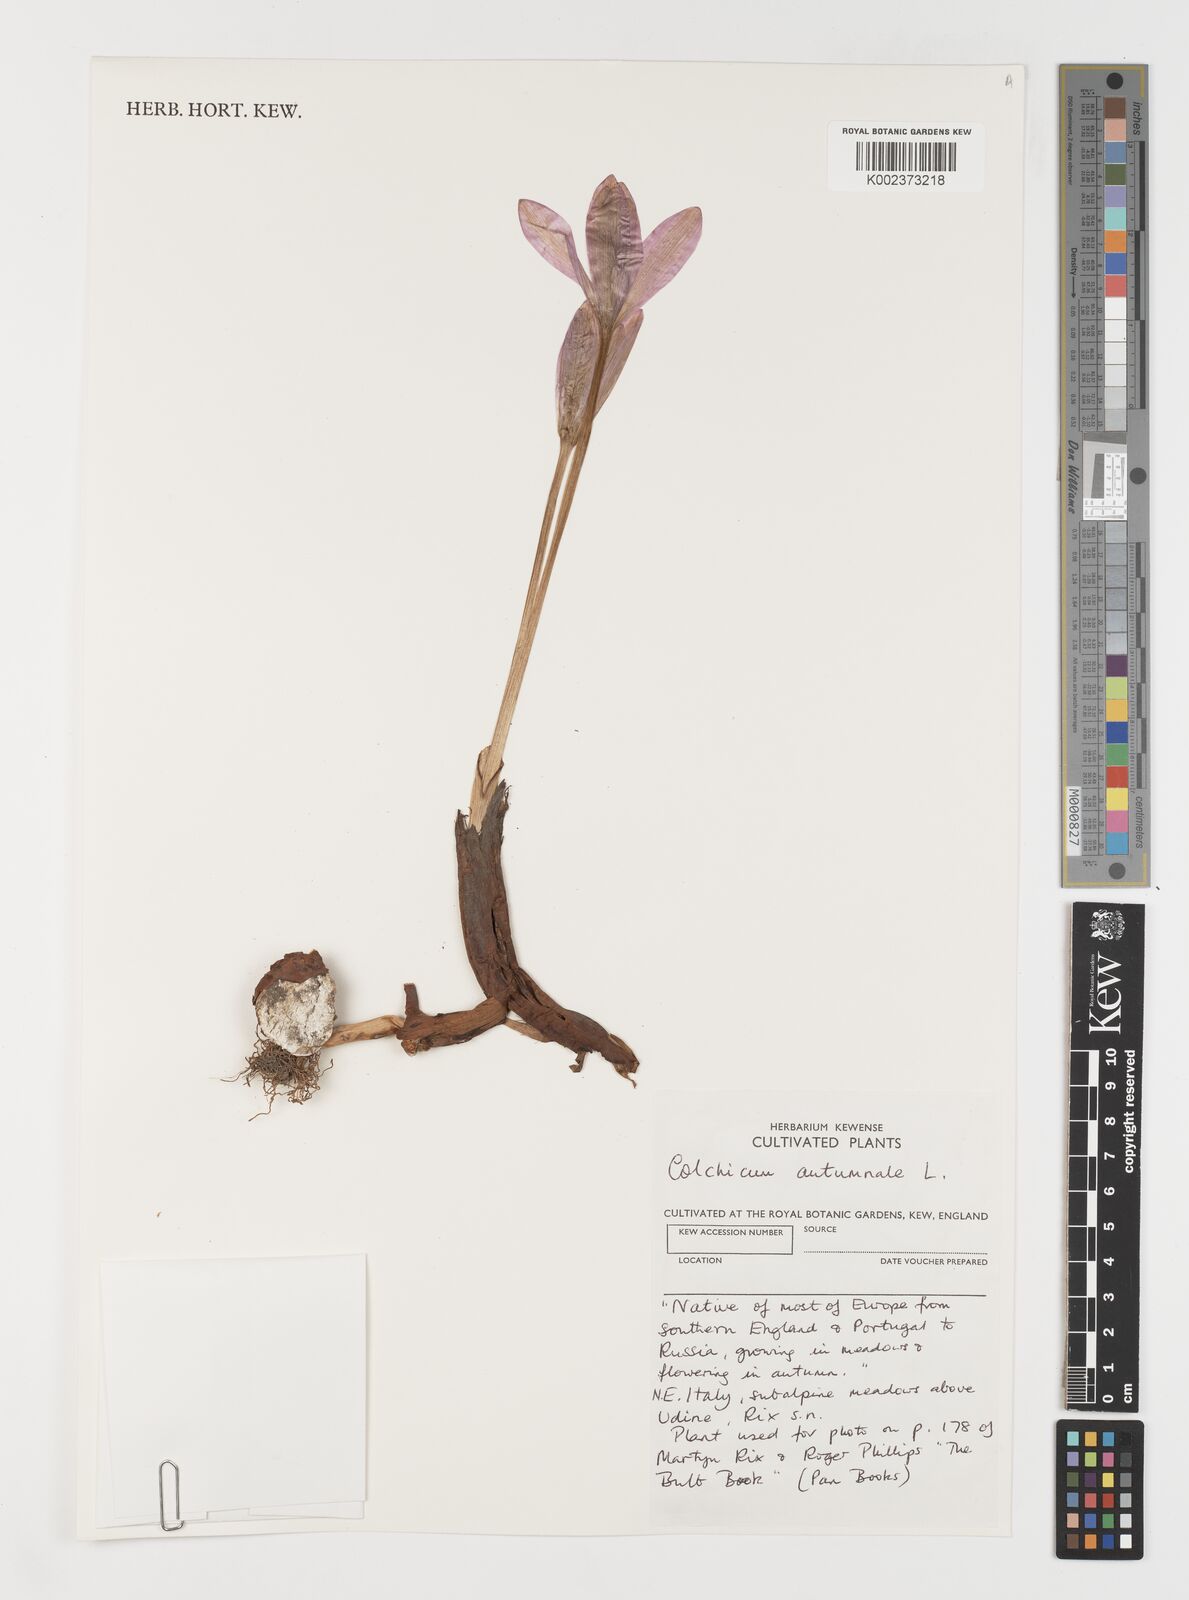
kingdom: Plantae
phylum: Tracheophyta
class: Liliopsida
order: Liliales
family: Colchicaceae
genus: Colchicum
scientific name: Colchicum autumnale
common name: Autumn crocus
